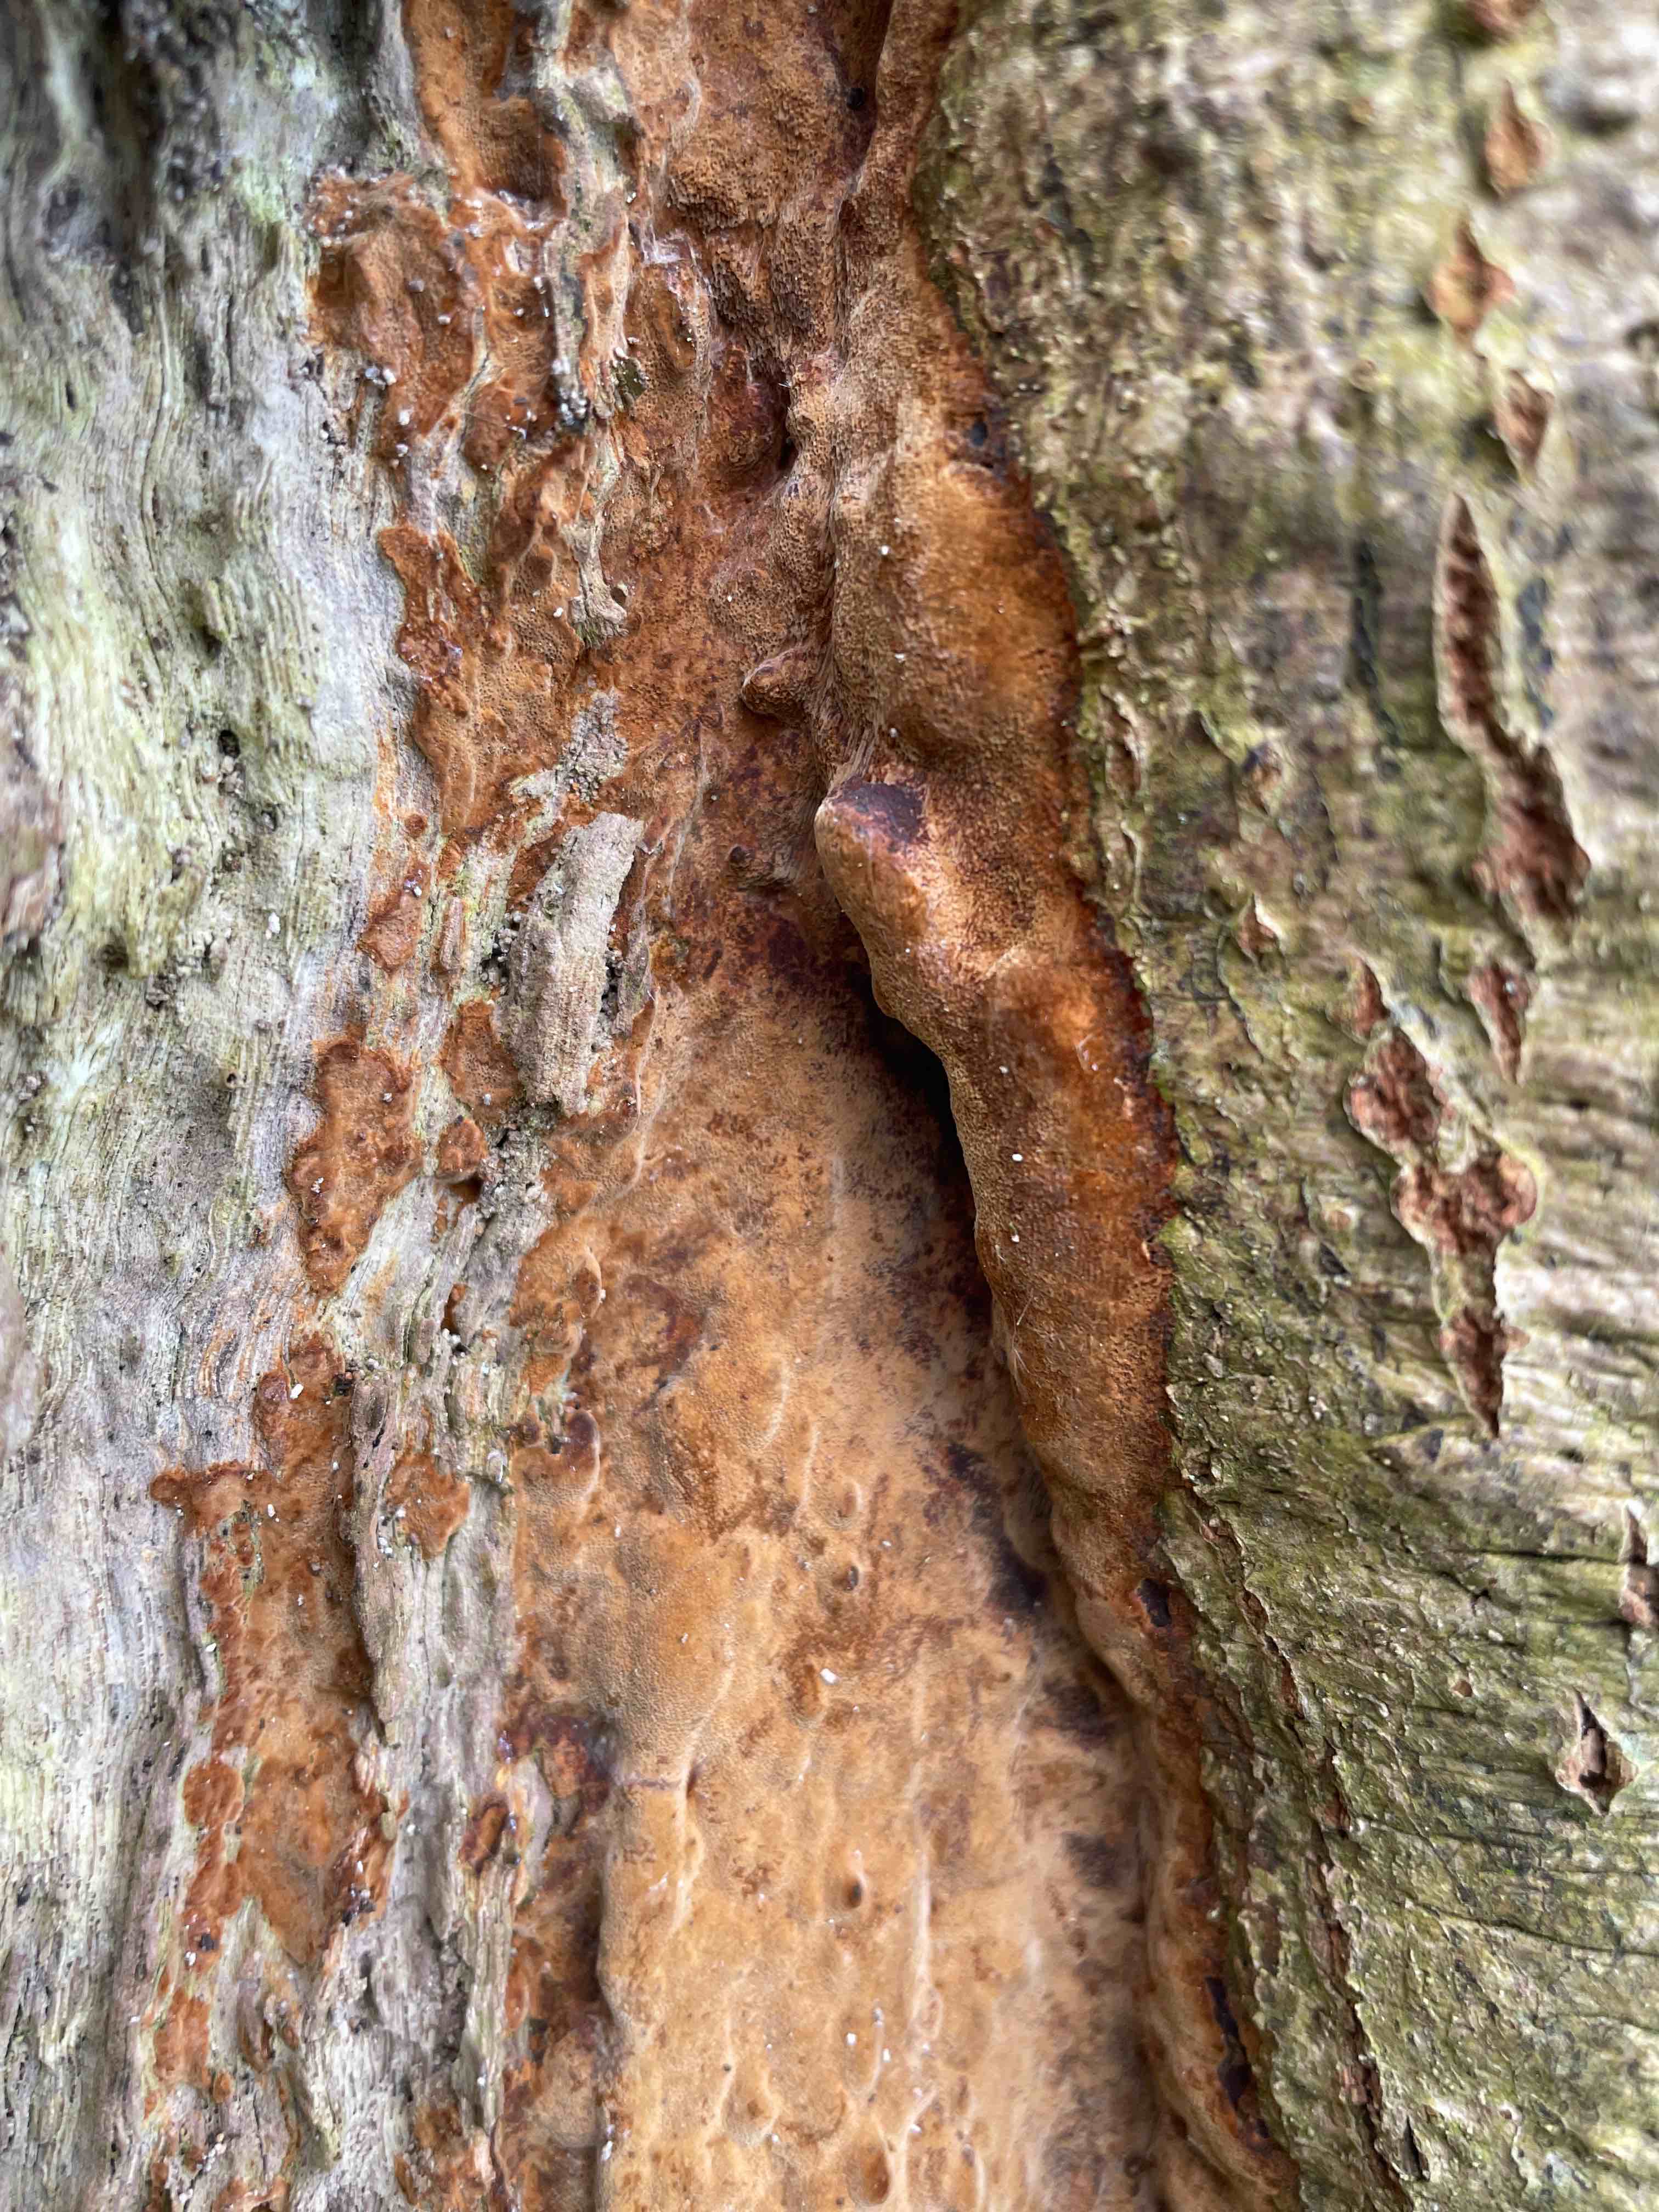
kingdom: Fungi
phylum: Basidiomycota
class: Agaricomycetes
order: Hymenochaetales
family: Hymenochaetaceae
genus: Fuscoporia
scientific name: Fuscoporia ferrea
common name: skorpe-ildporesvamp
